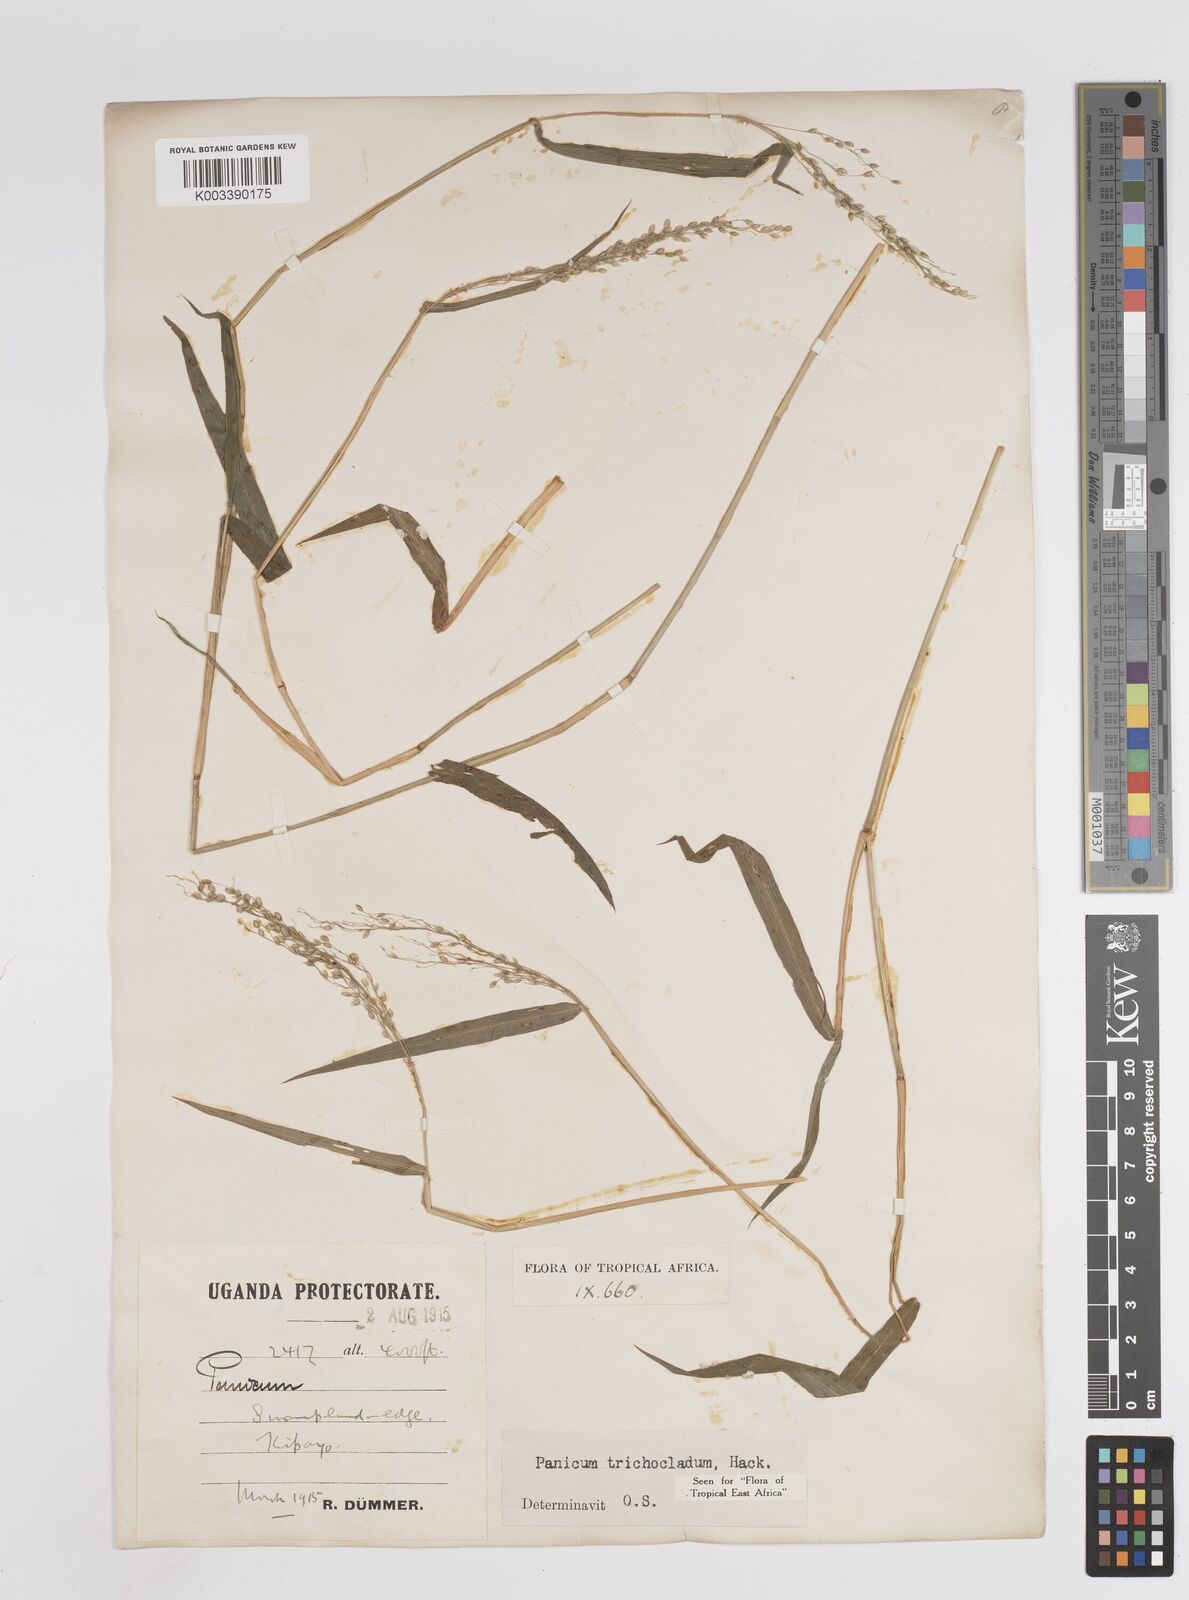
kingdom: Plantae
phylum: Tracheophyta
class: Liliopsida
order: Poales
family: Poaceae
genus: Panicum
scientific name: Panicum trichocladum
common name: Donkey grass
